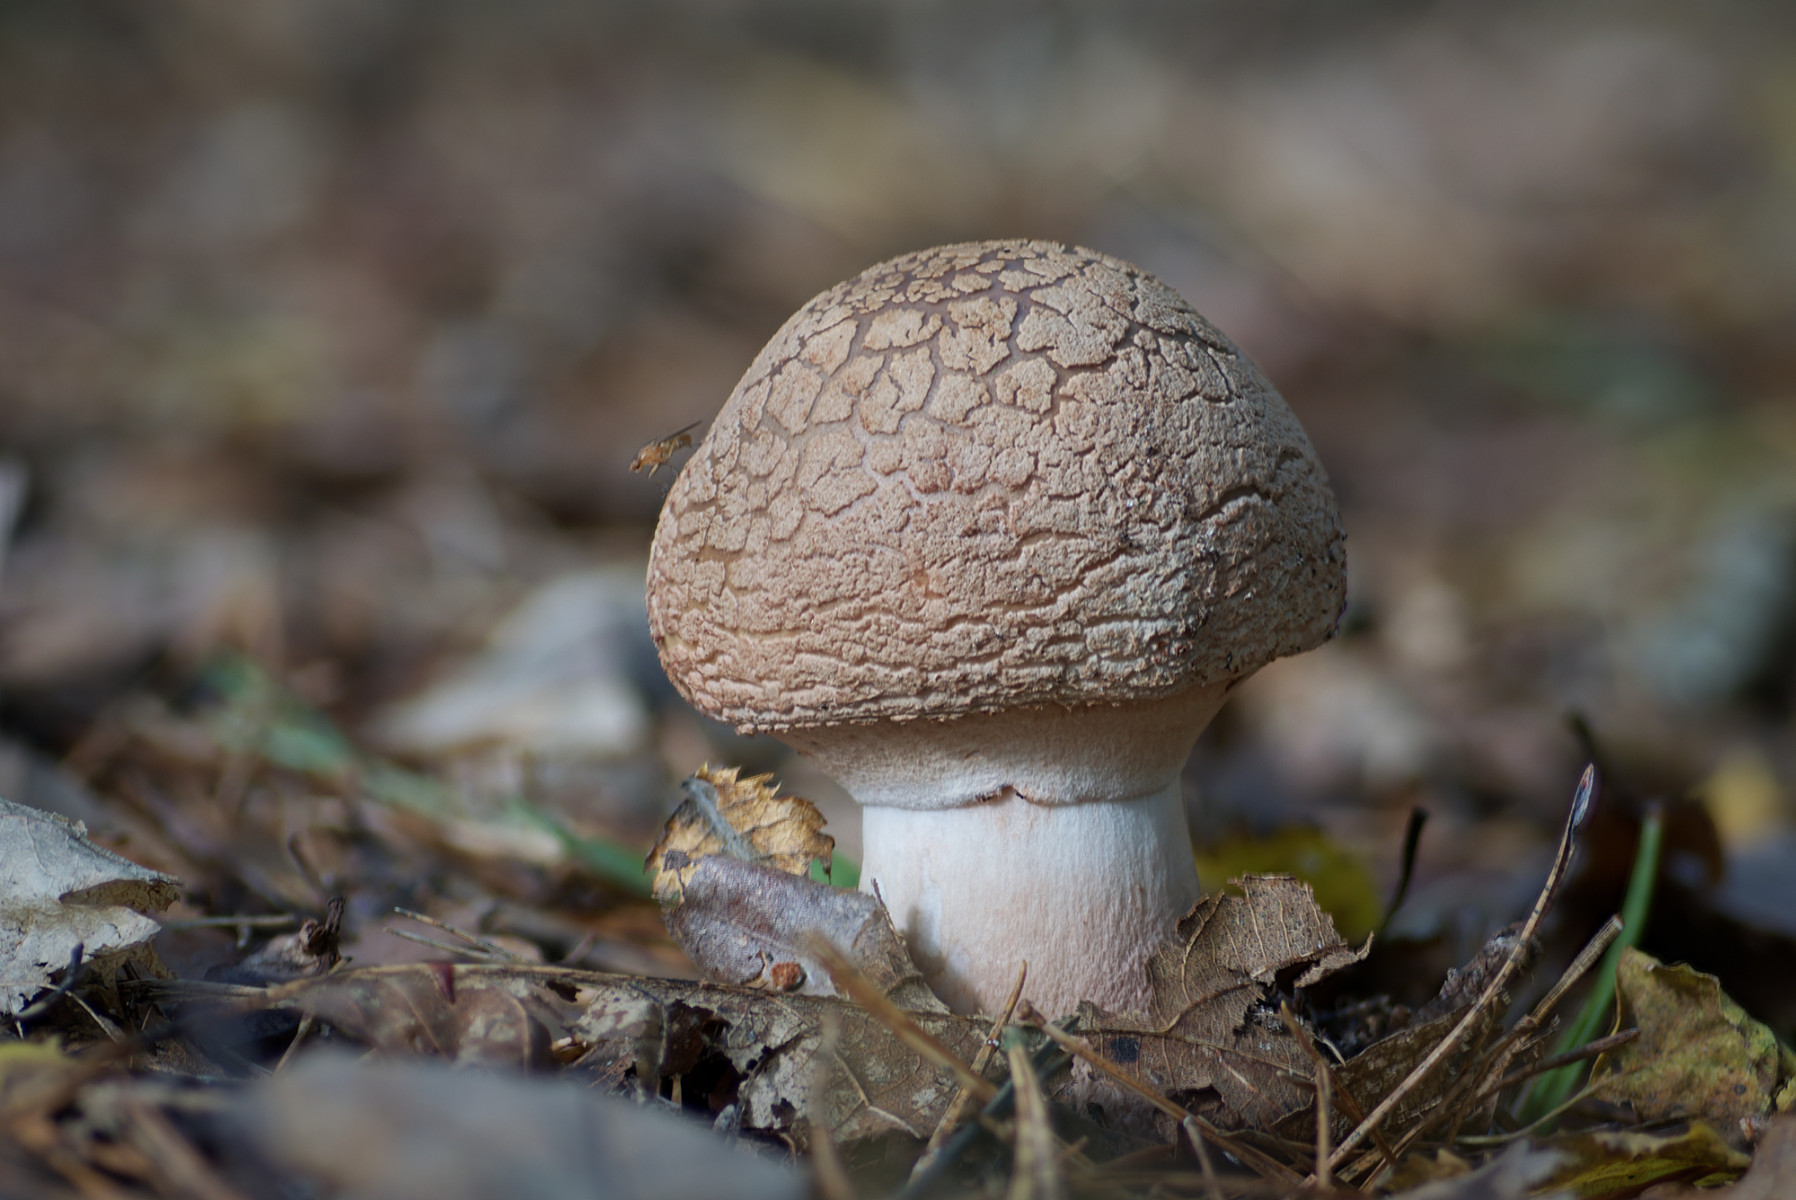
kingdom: Fungi
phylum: Basidiomycota
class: Agaricomycetes
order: Agaricales
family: Amanitaceae
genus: Amanita
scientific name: Amanita rubescens
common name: rødmende fluesvamp
